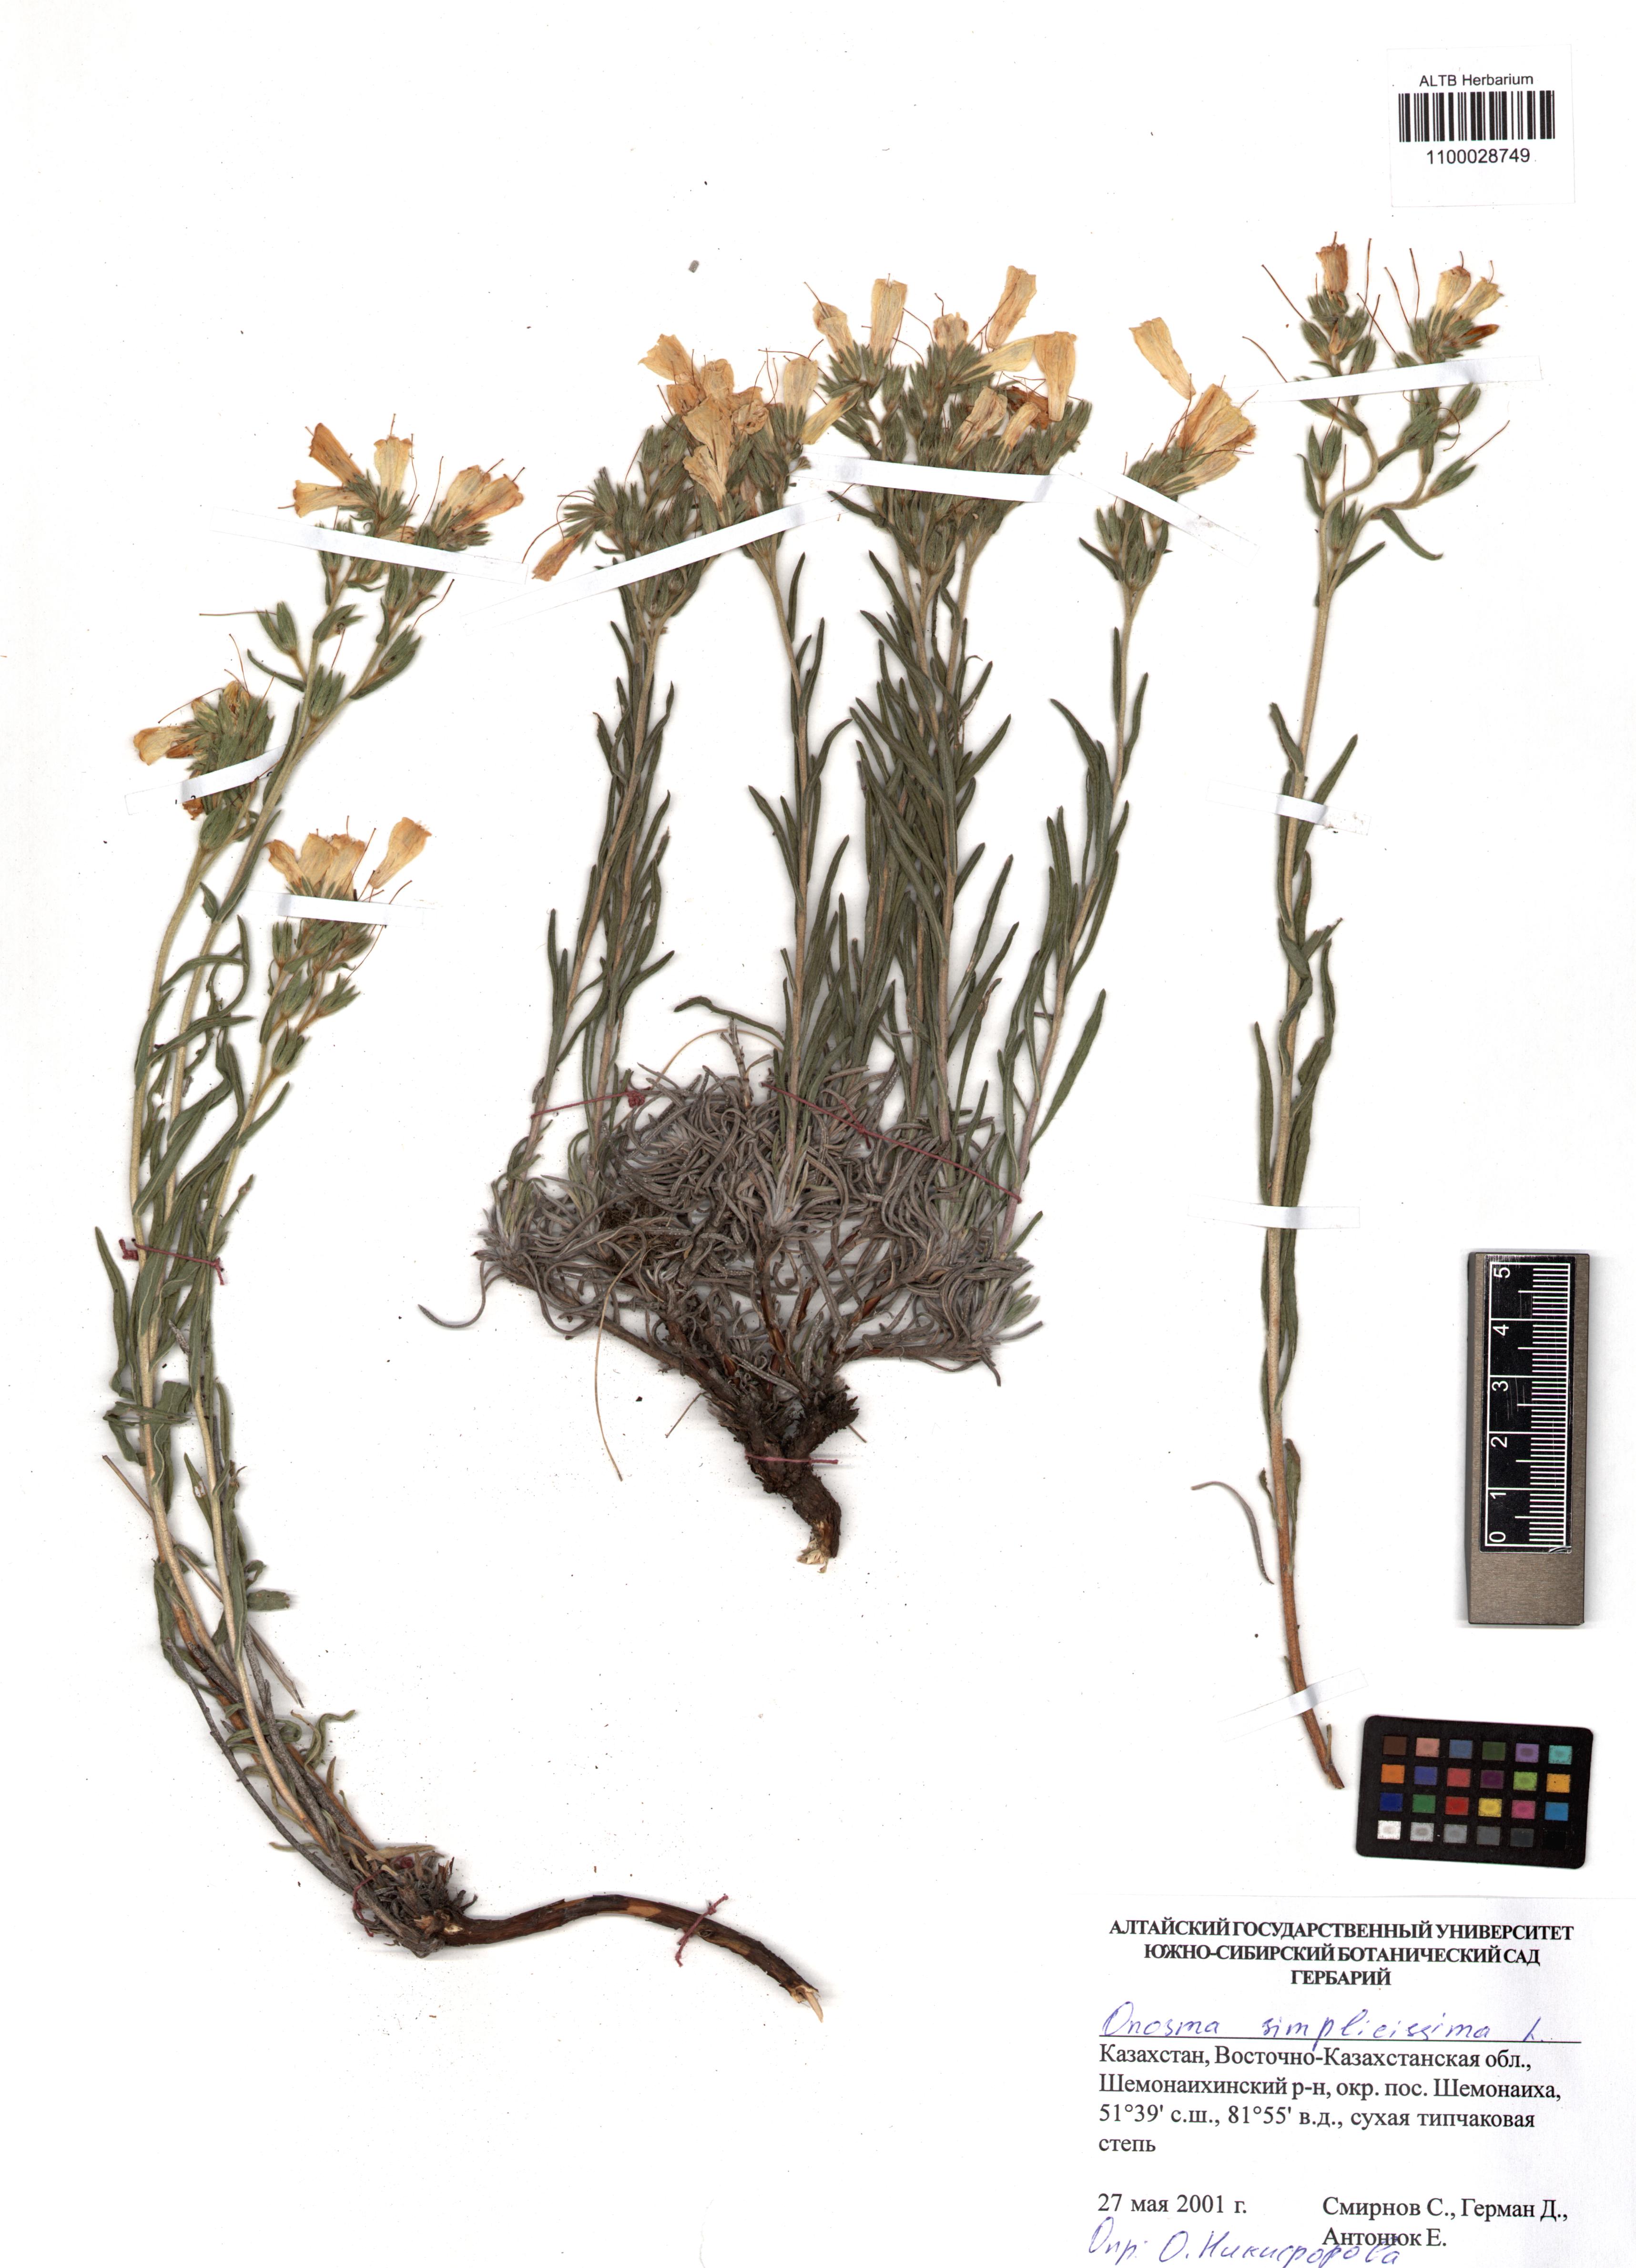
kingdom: Plantae
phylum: Tracheophyta
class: Magnoliopsida
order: Boraginales
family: Boraginaceae
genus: Onosma
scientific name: Onosma simplicissima
